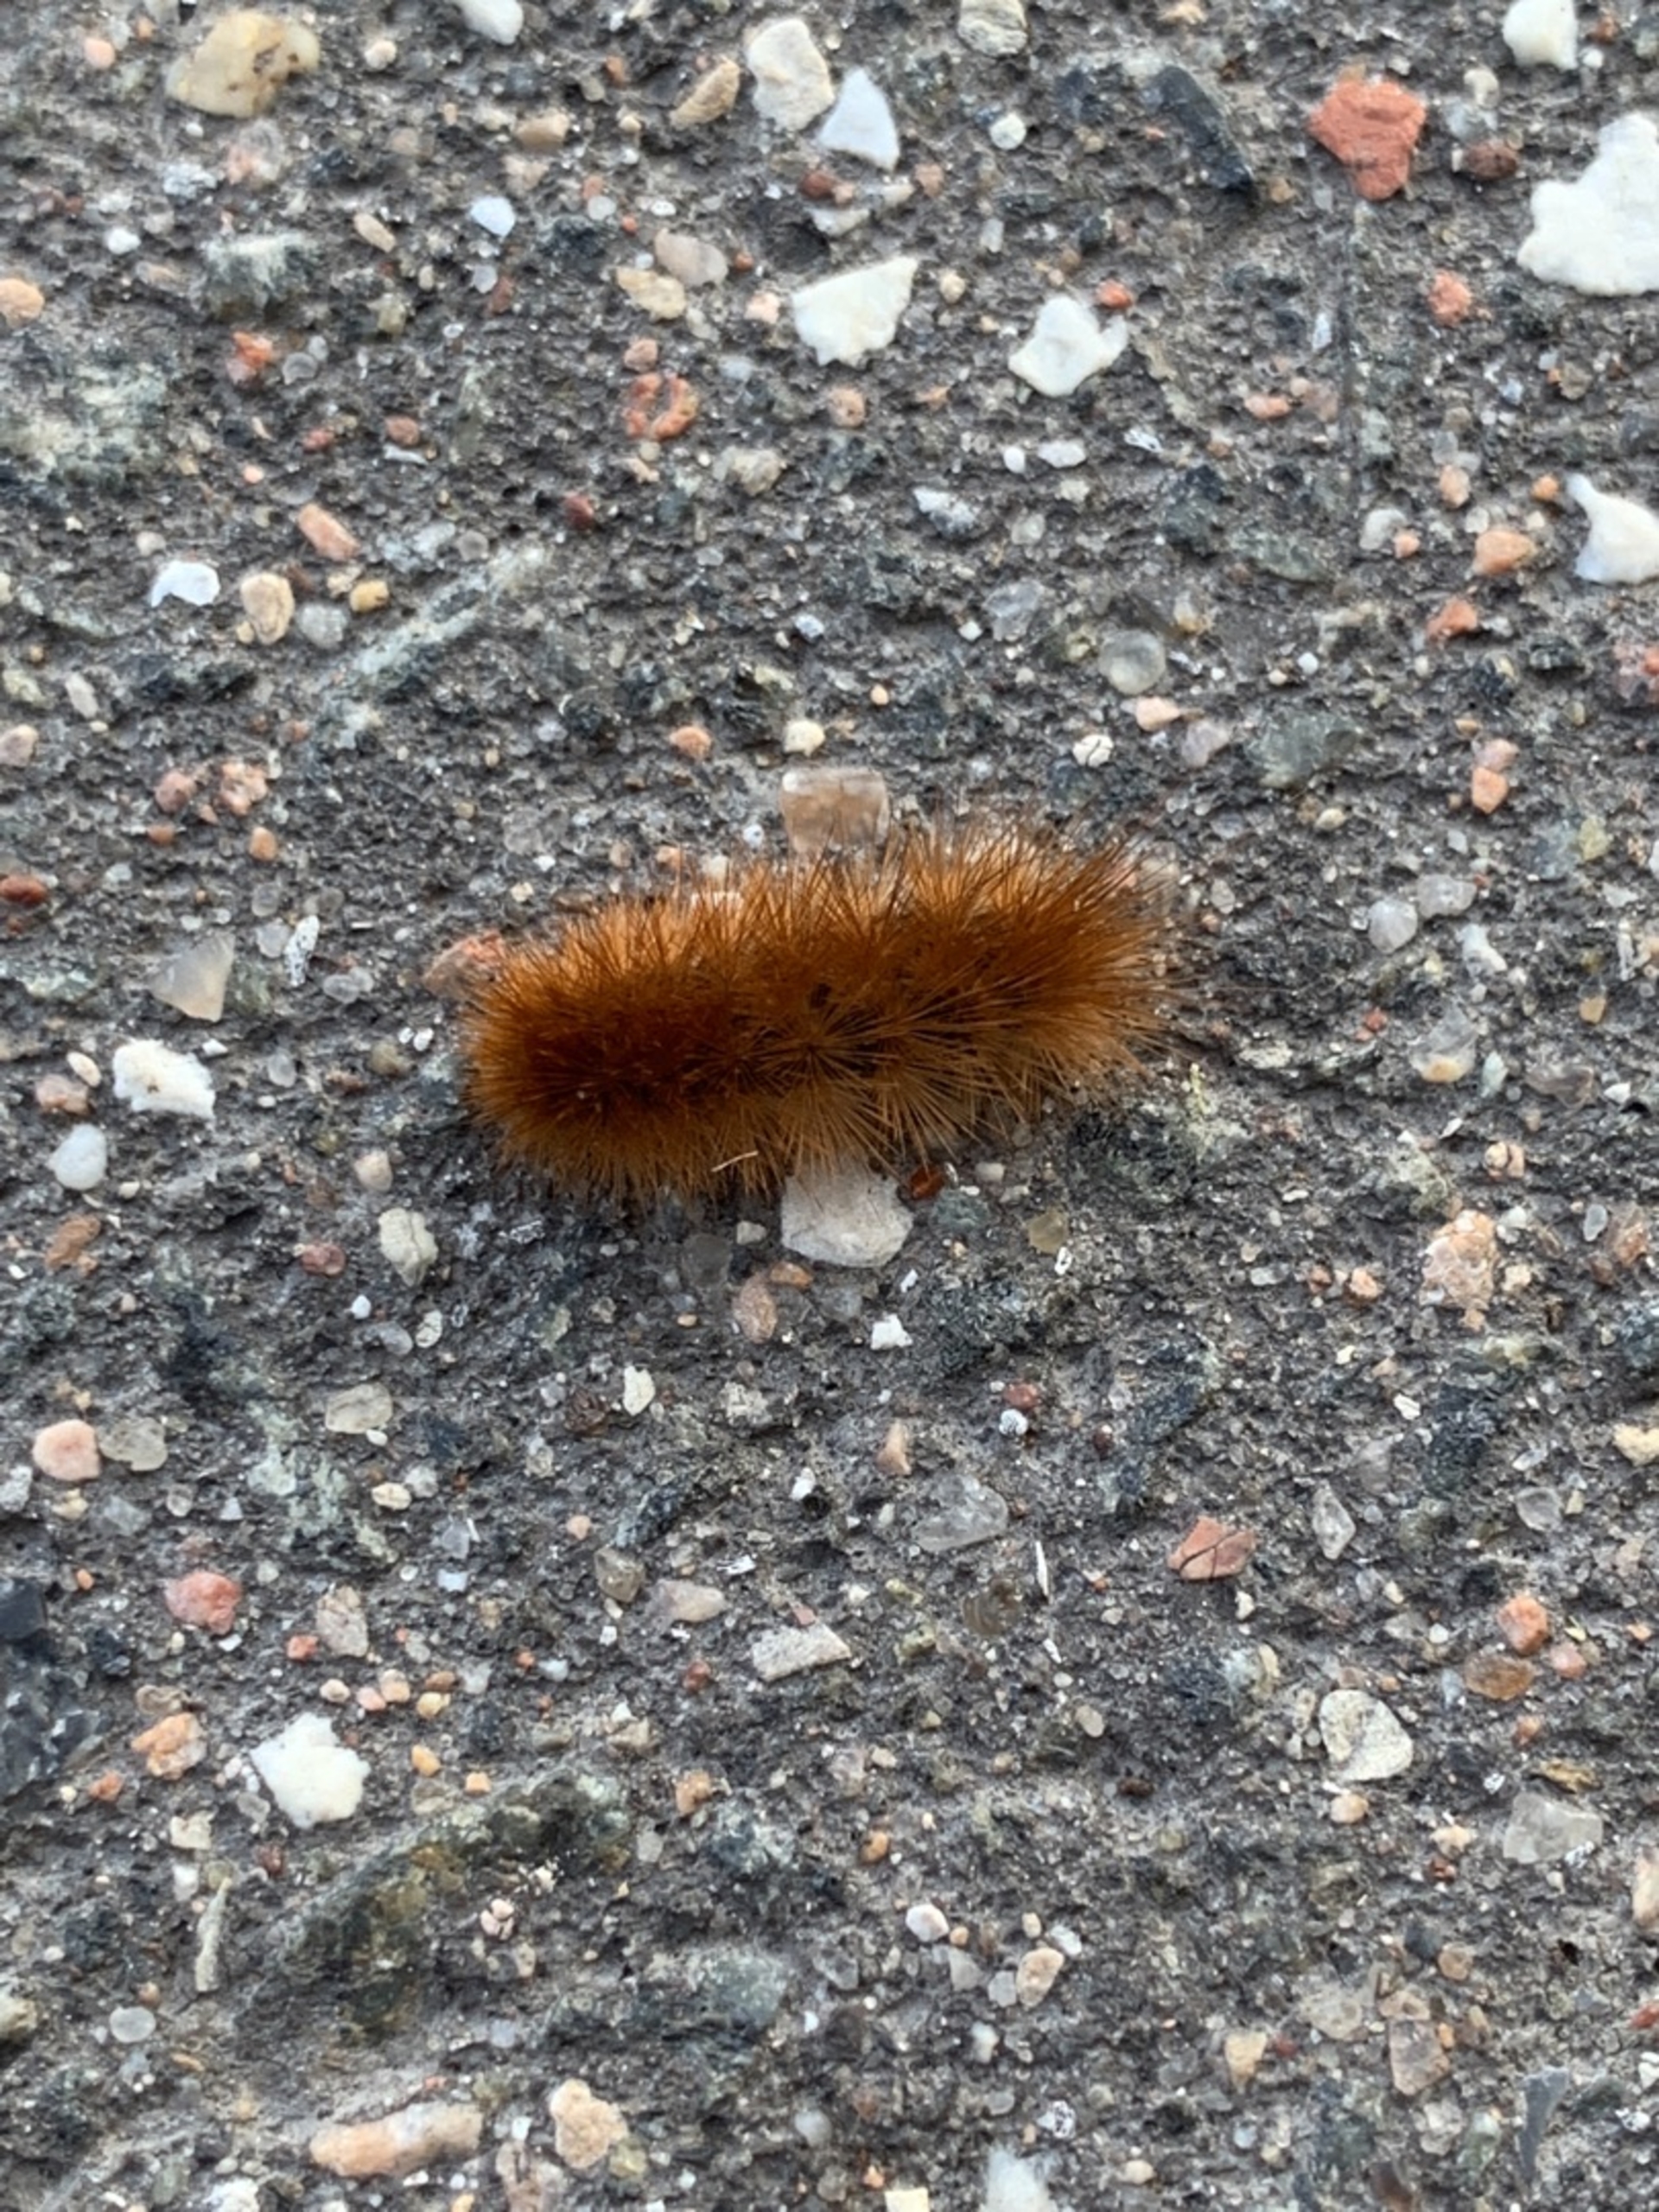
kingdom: Animalia
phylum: Arthropoda
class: Insecta
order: Lepidoptera
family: Erebidae
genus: Phragmatobia
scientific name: Phragmatobia fuliginosa
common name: Kanelbjørn
